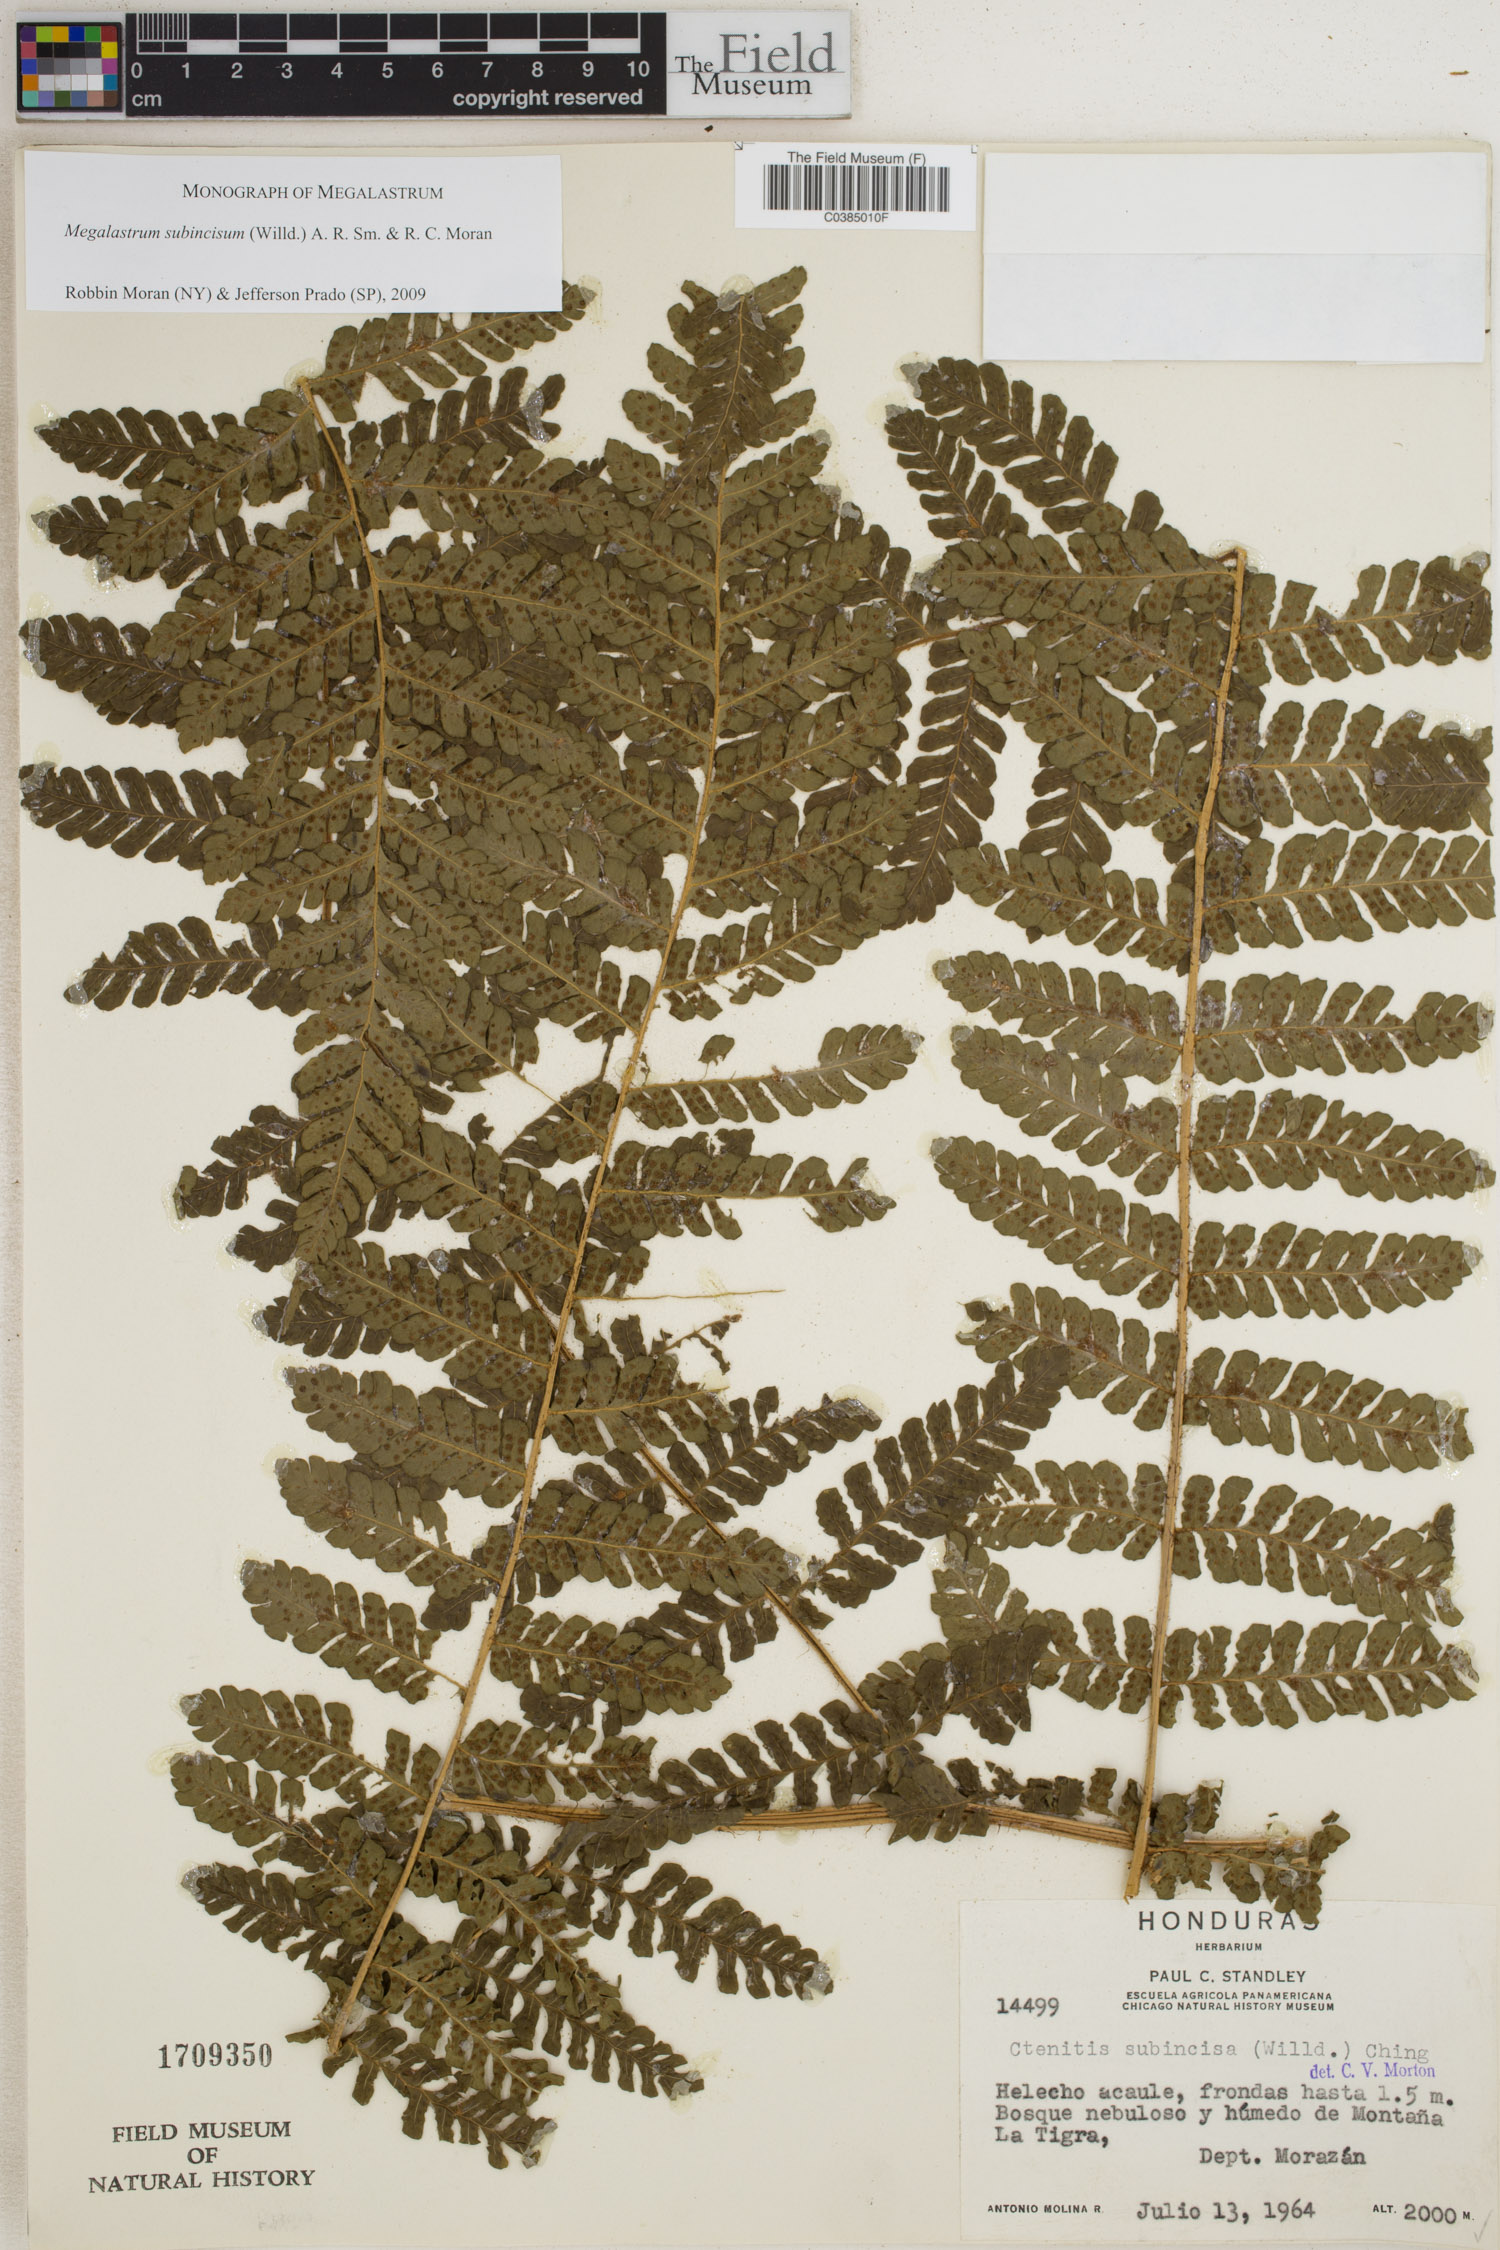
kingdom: Plantae
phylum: Tracheophyta
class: Polypodiopsida
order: Polypodiales
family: Dryopteridaceae
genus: Megalastrum
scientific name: Megalastrum subincisum
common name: Jagleaf junglefern
